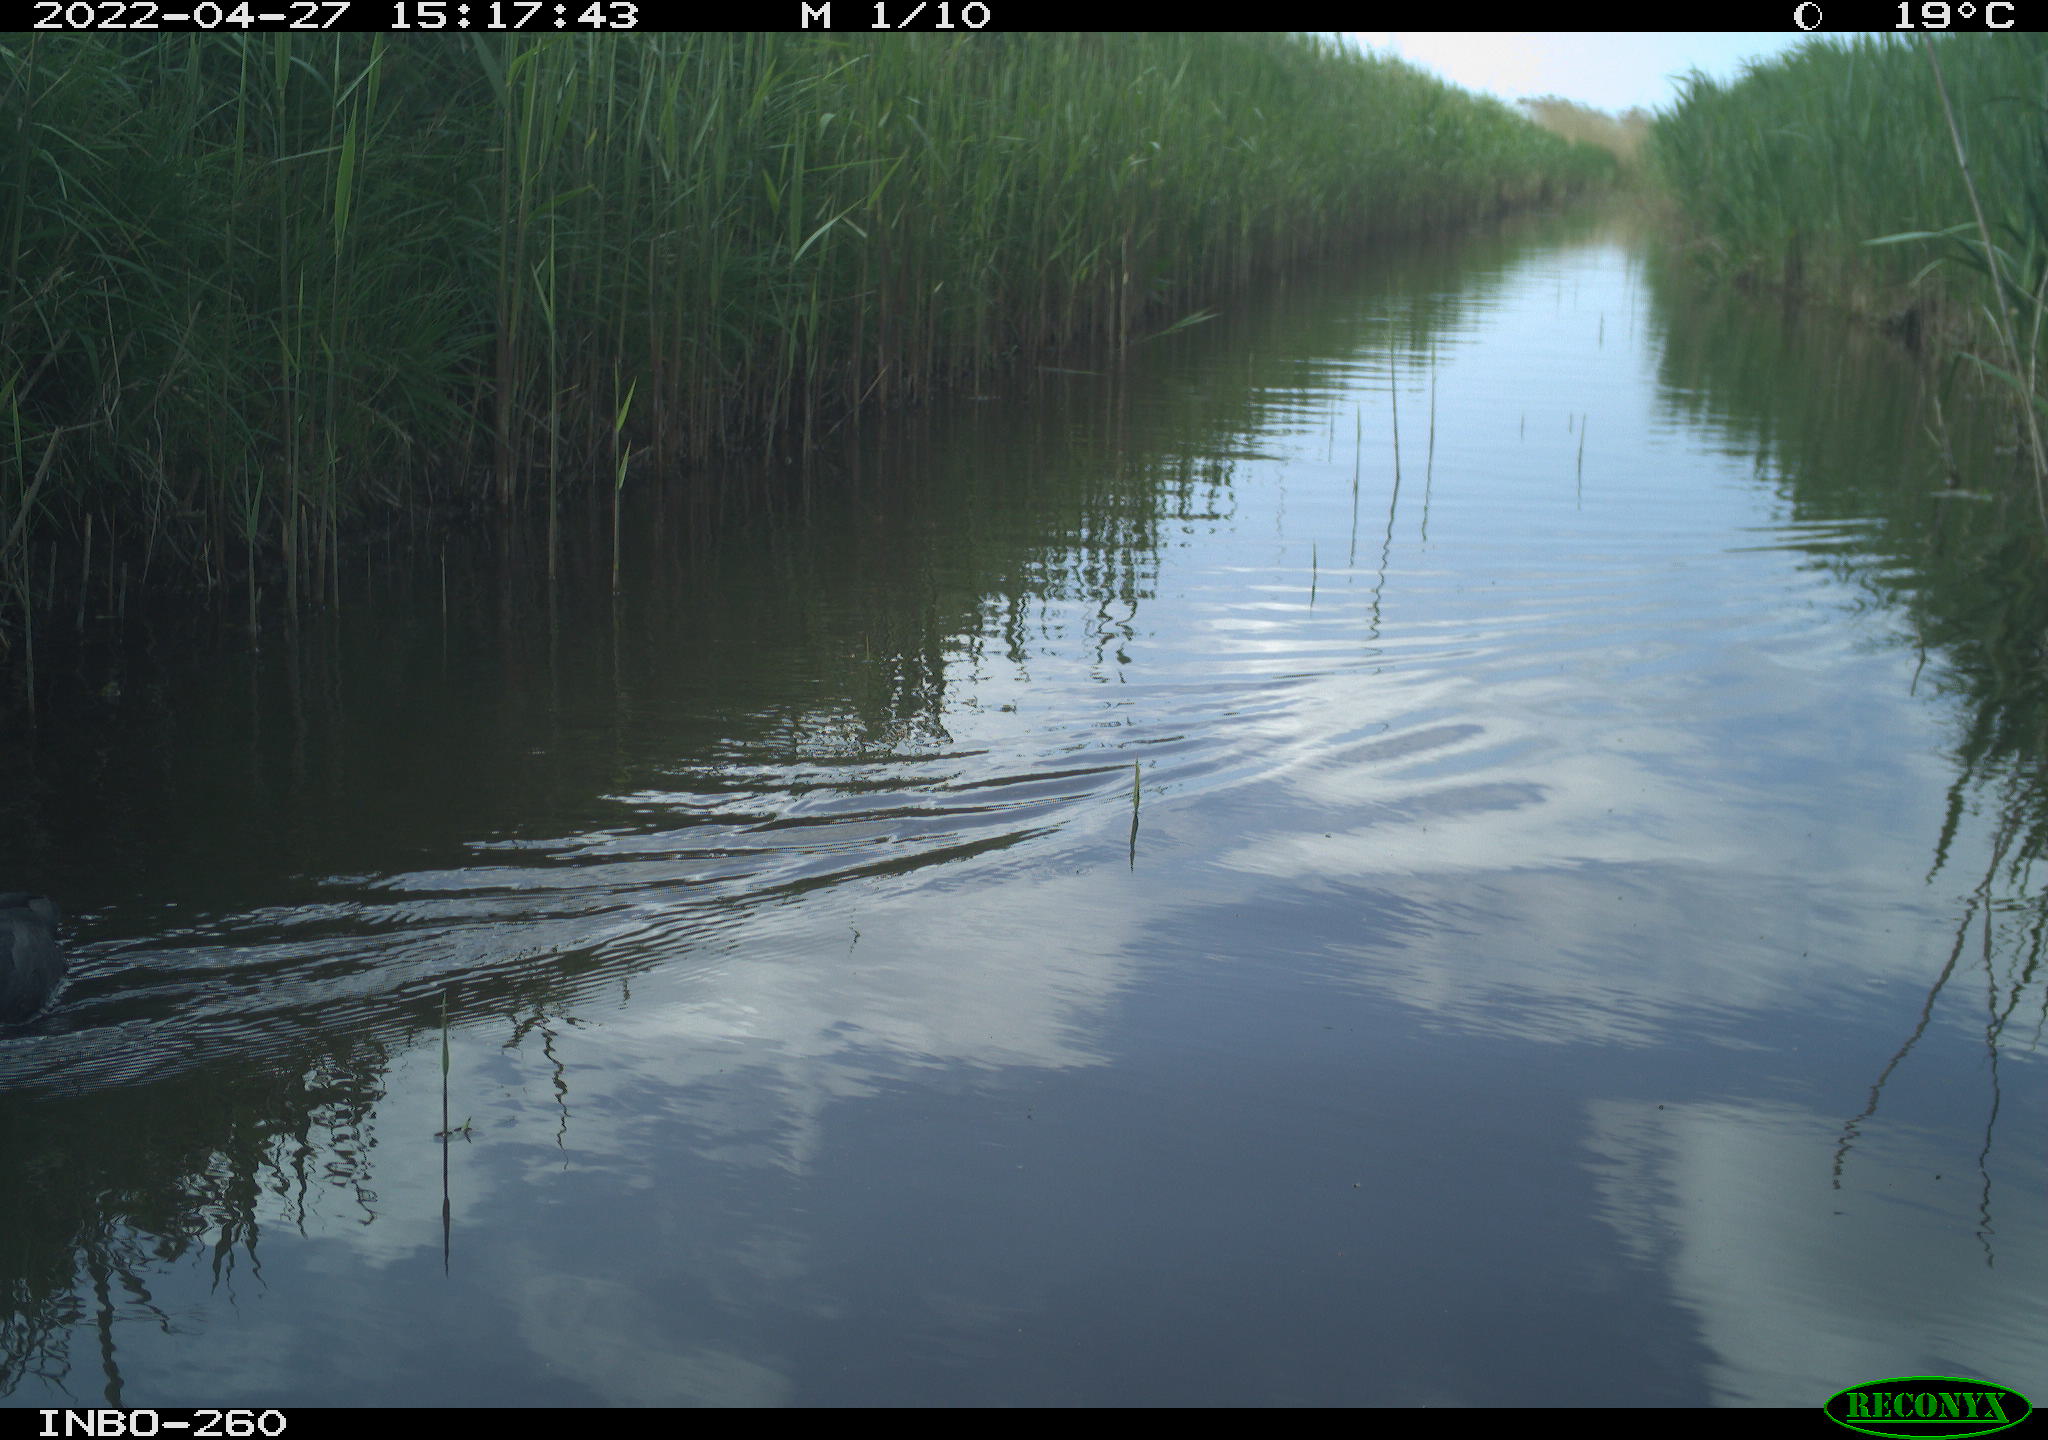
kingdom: Animalia
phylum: Chordata
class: Aves
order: Gruiformes
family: Rallidae
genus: Fulica
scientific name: Fulica atra
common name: Eurasian coot
